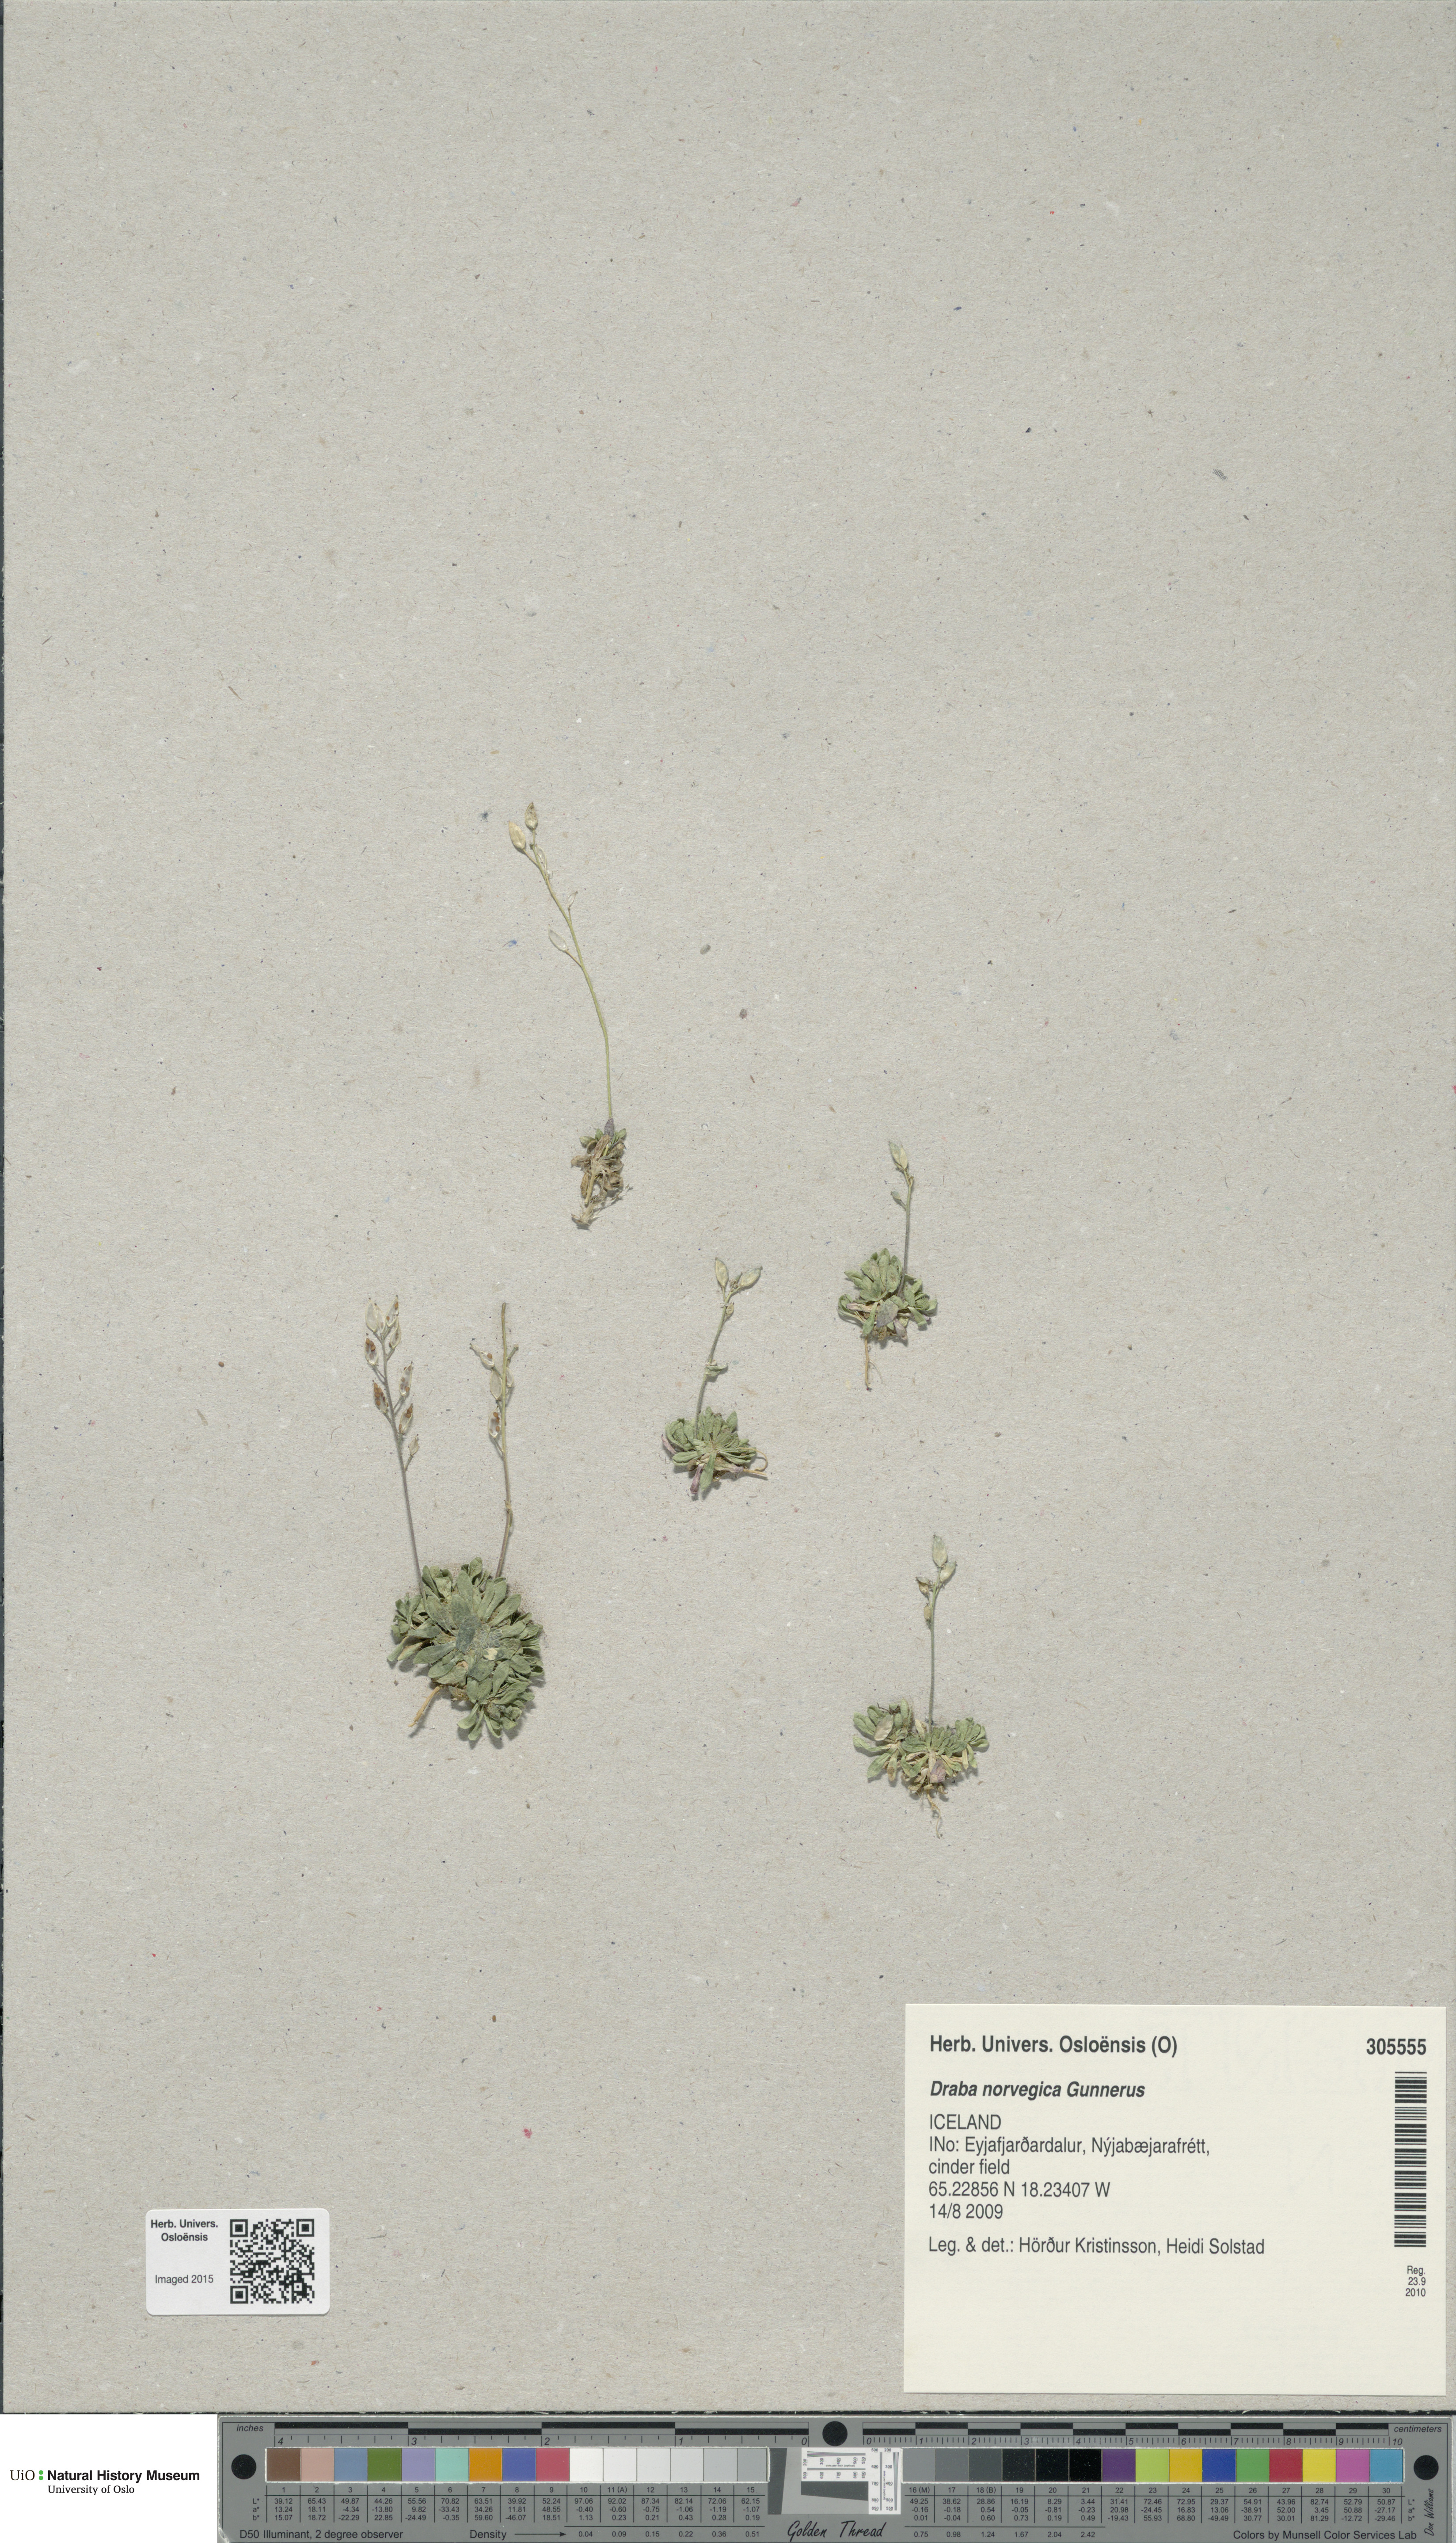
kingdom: Plantae
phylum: Tracheophyta
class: Magnoliopsida
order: Brassicales
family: Brassicaceae
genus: Draba
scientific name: Draba norvegica
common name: Rock whitlowgrass
